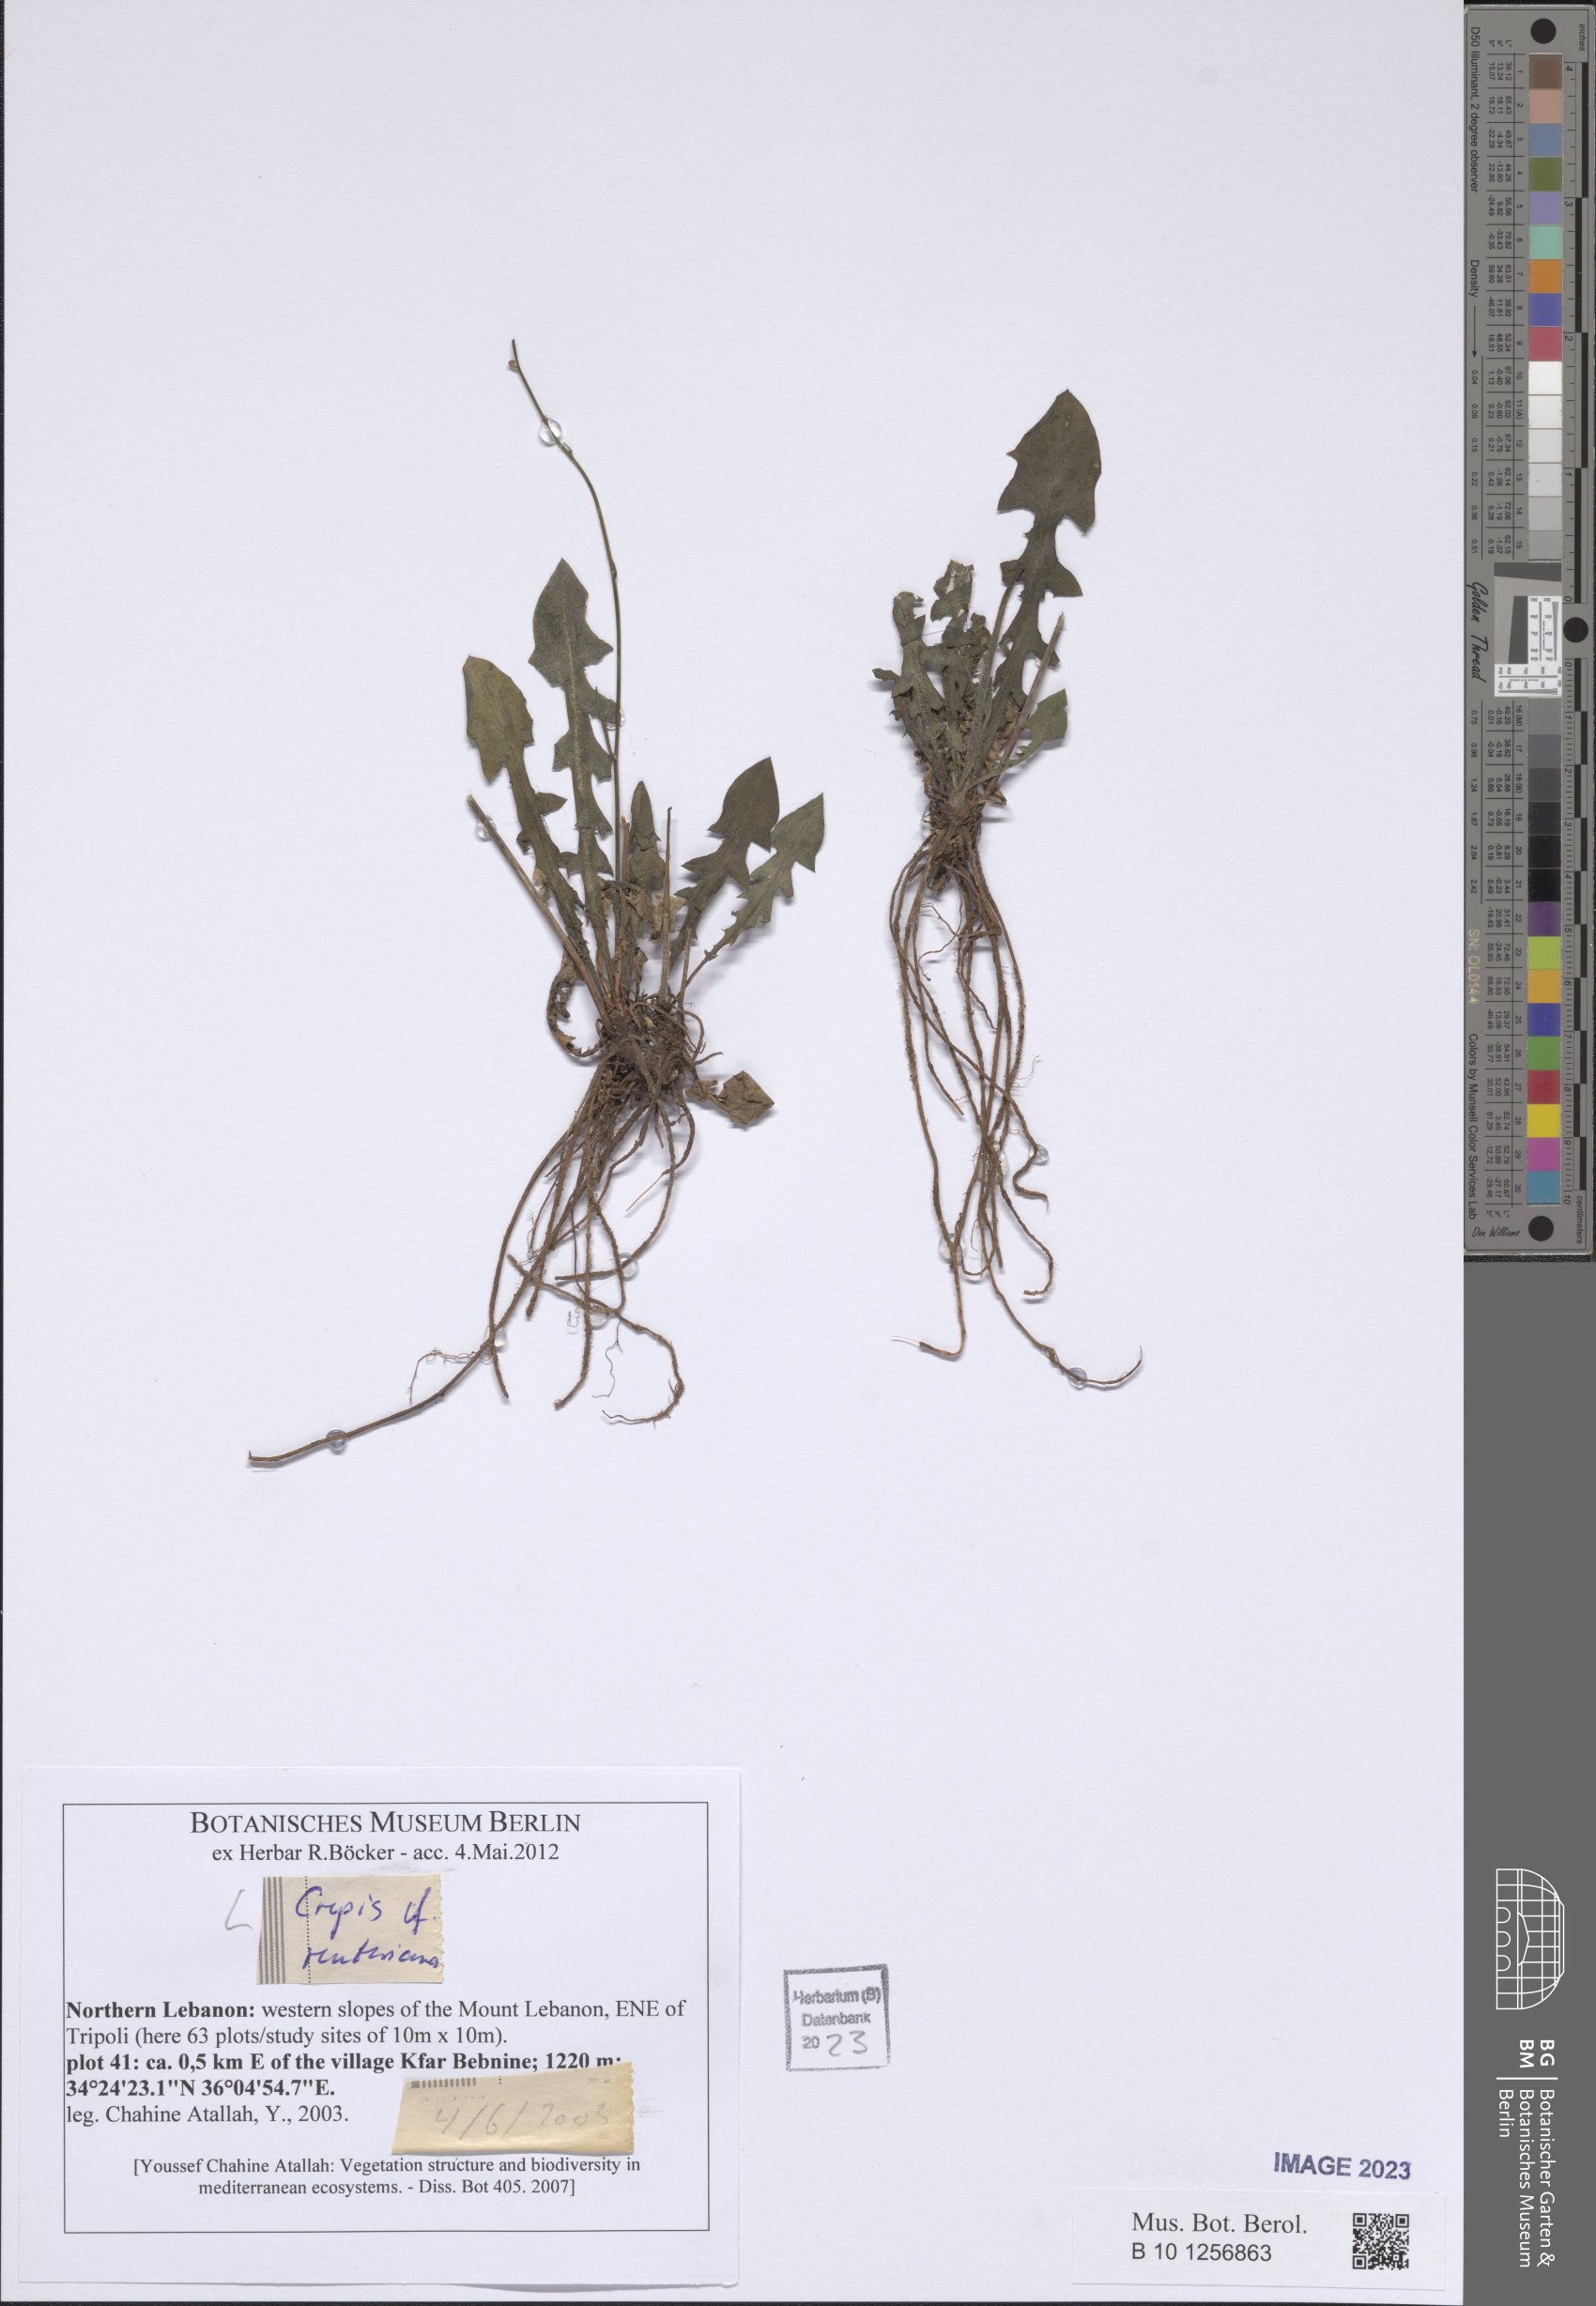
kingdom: Plantae
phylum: Tracheophyta
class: Magnoliopsida
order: Asterales
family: Asteraceae
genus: Crepis
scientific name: Crepis reuteriana
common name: Hawk's-beard
